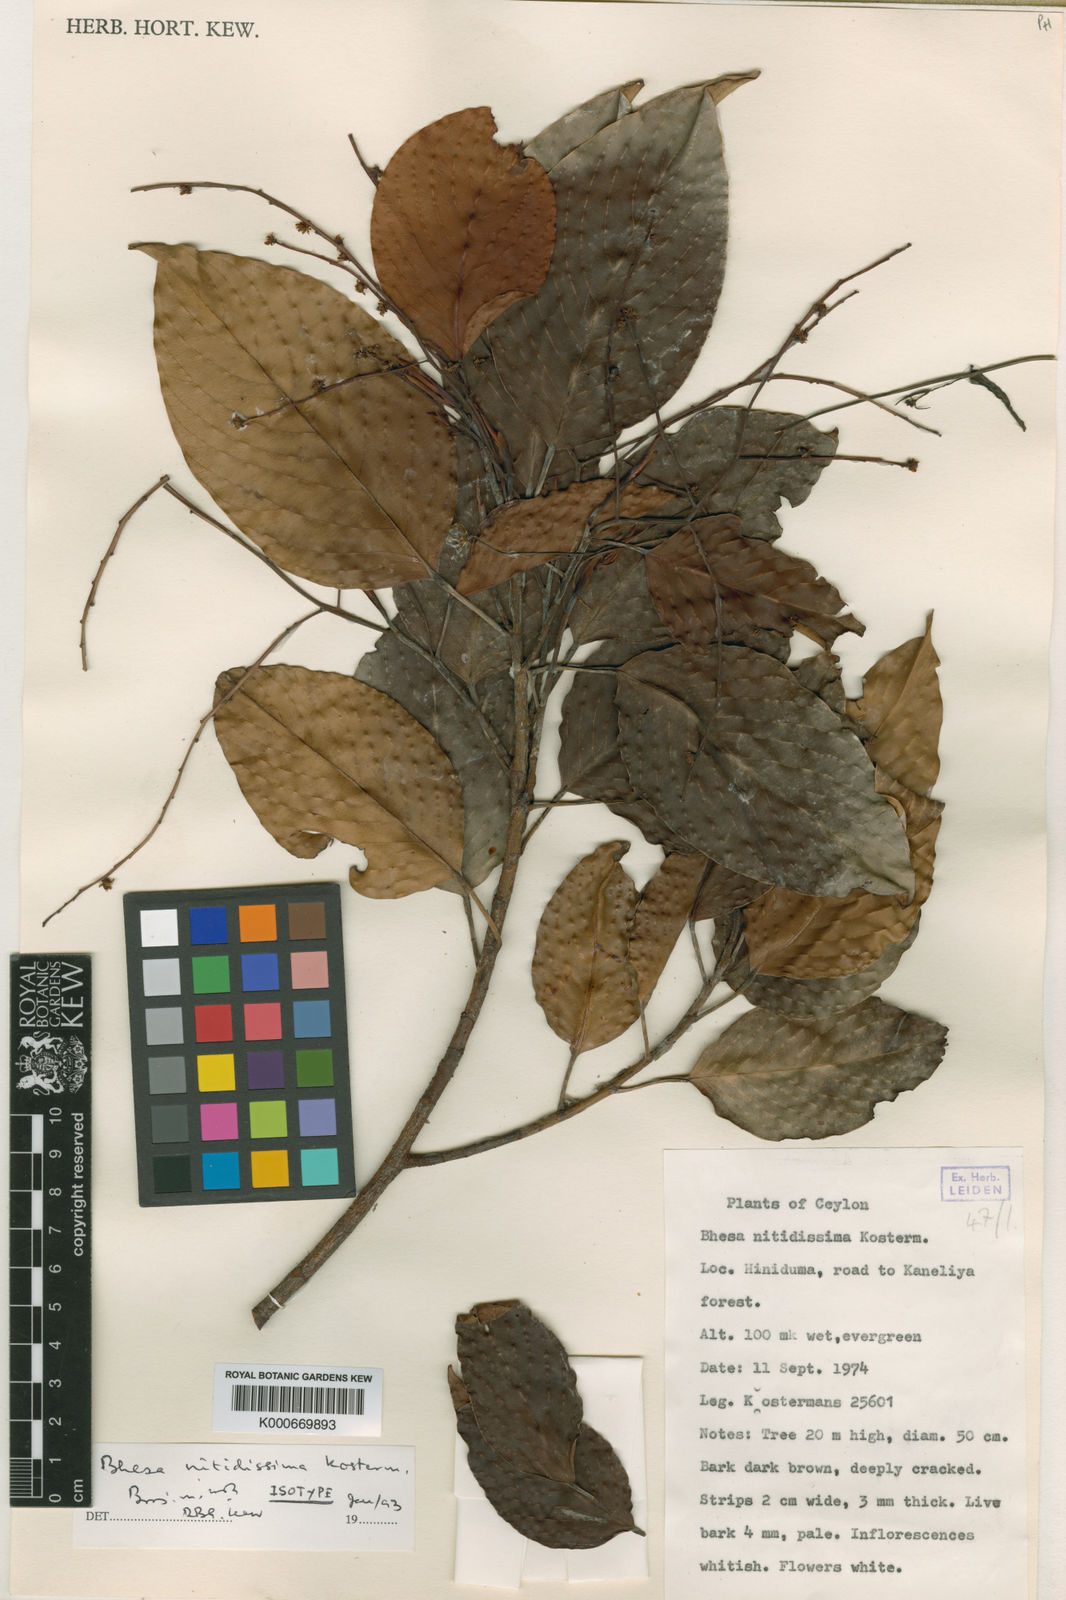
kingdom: Plantae
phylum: Tracheophyta
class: Magnoliopsida
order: Malpighiales
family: Centroplacaceae
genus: Bhesa
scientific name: Bhesa nitidissima
